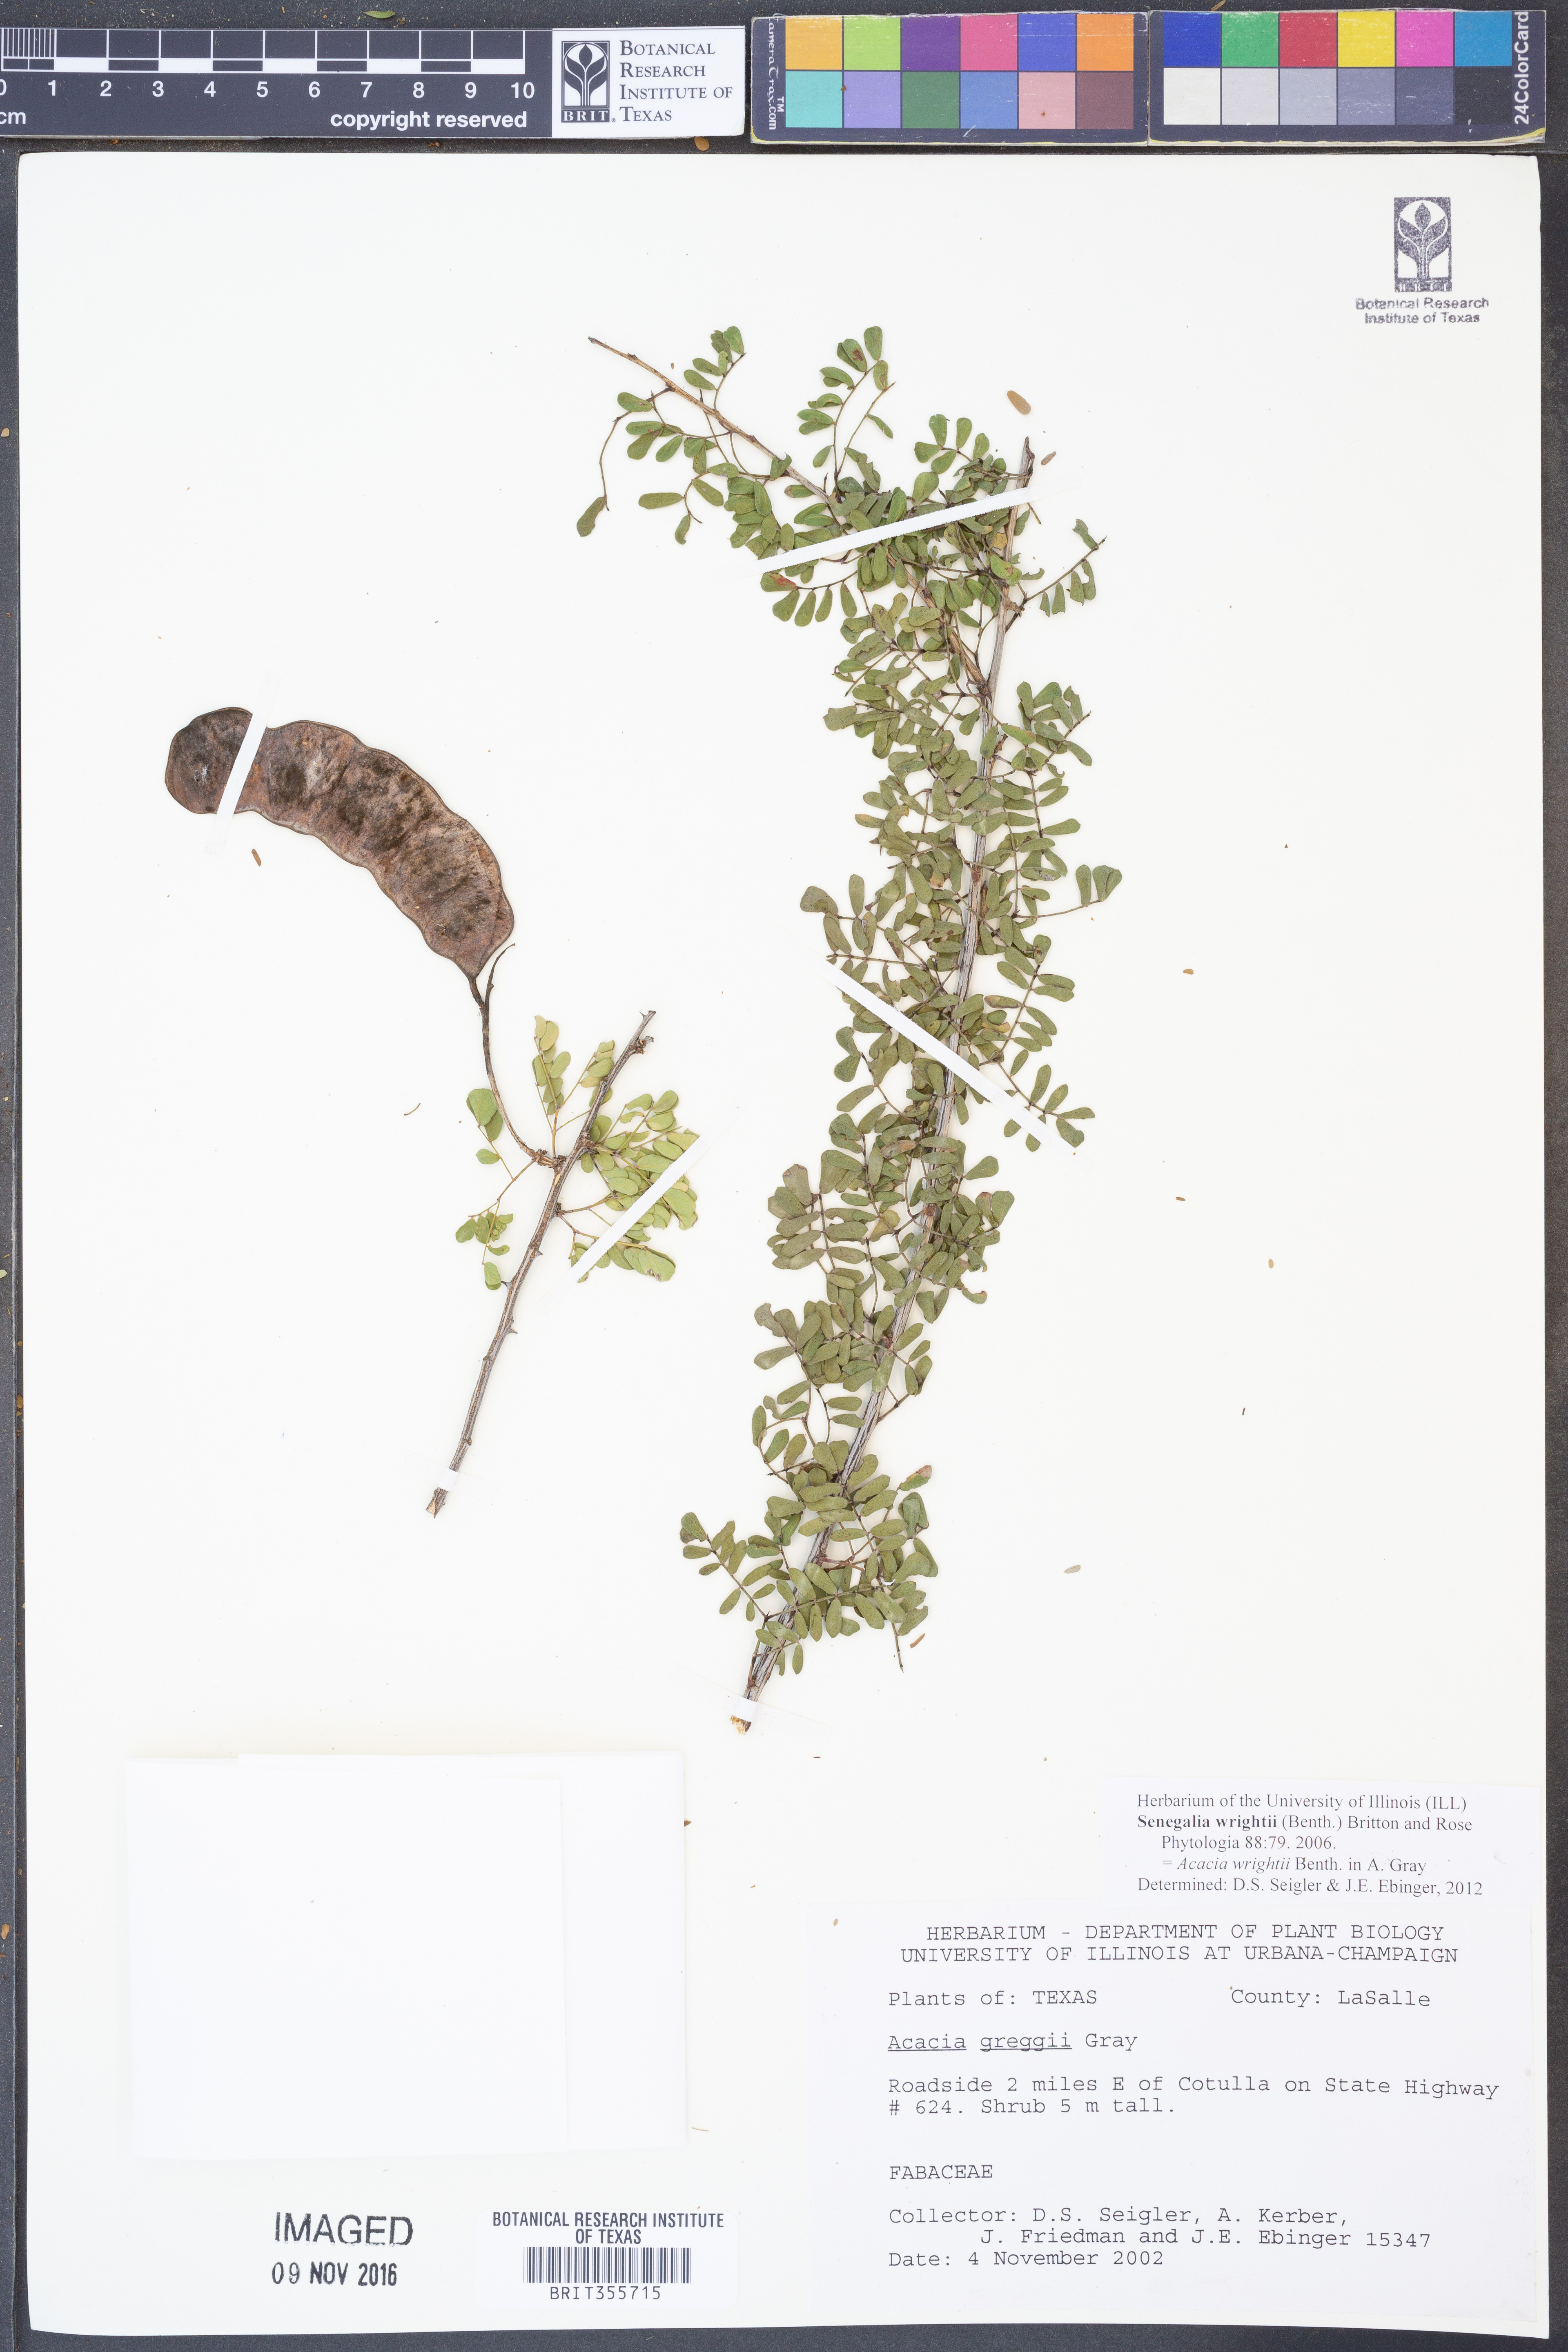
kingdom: Plantae
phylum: Tracheophyta
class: Magnoliopsida
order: Fabales
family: Fabaceae
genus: Senegalia
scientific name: Senegalia wrightii
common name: Texas cat's-claw
